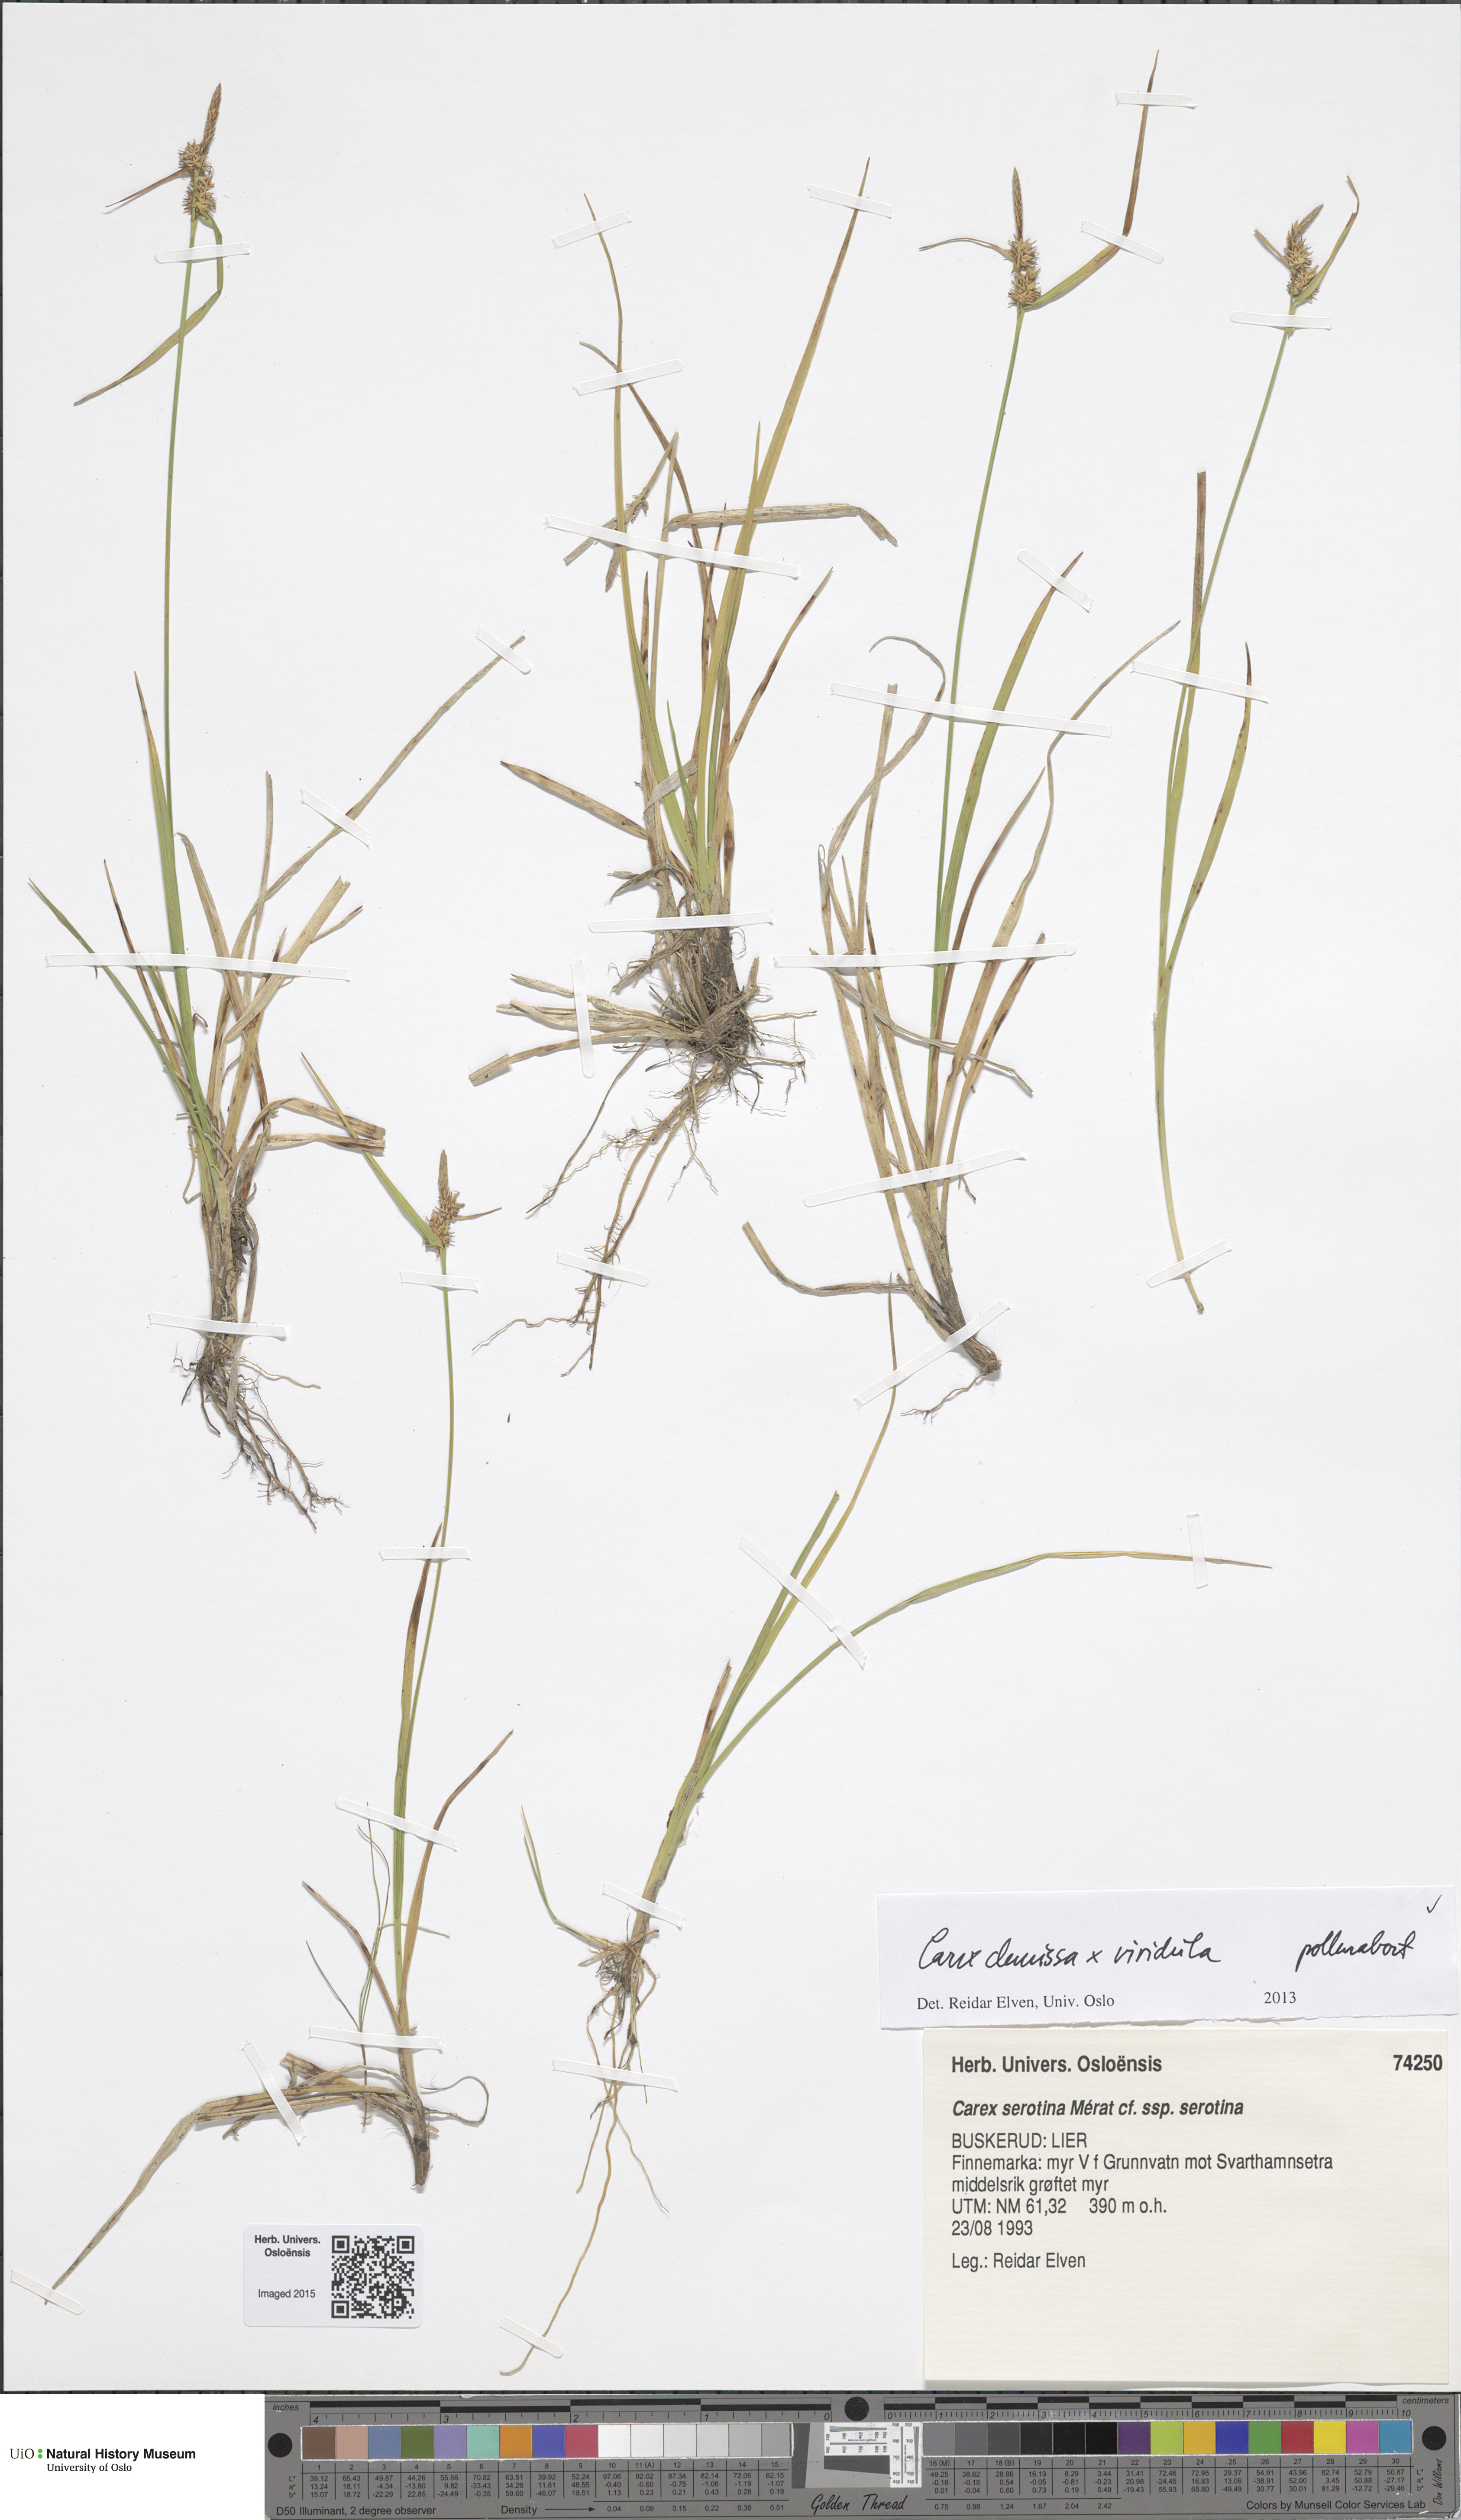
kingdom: Plantae
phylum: Tracheophyta
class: Liliopsida
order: Poales
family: Cyperaceae
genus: Carex
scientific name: Carex
